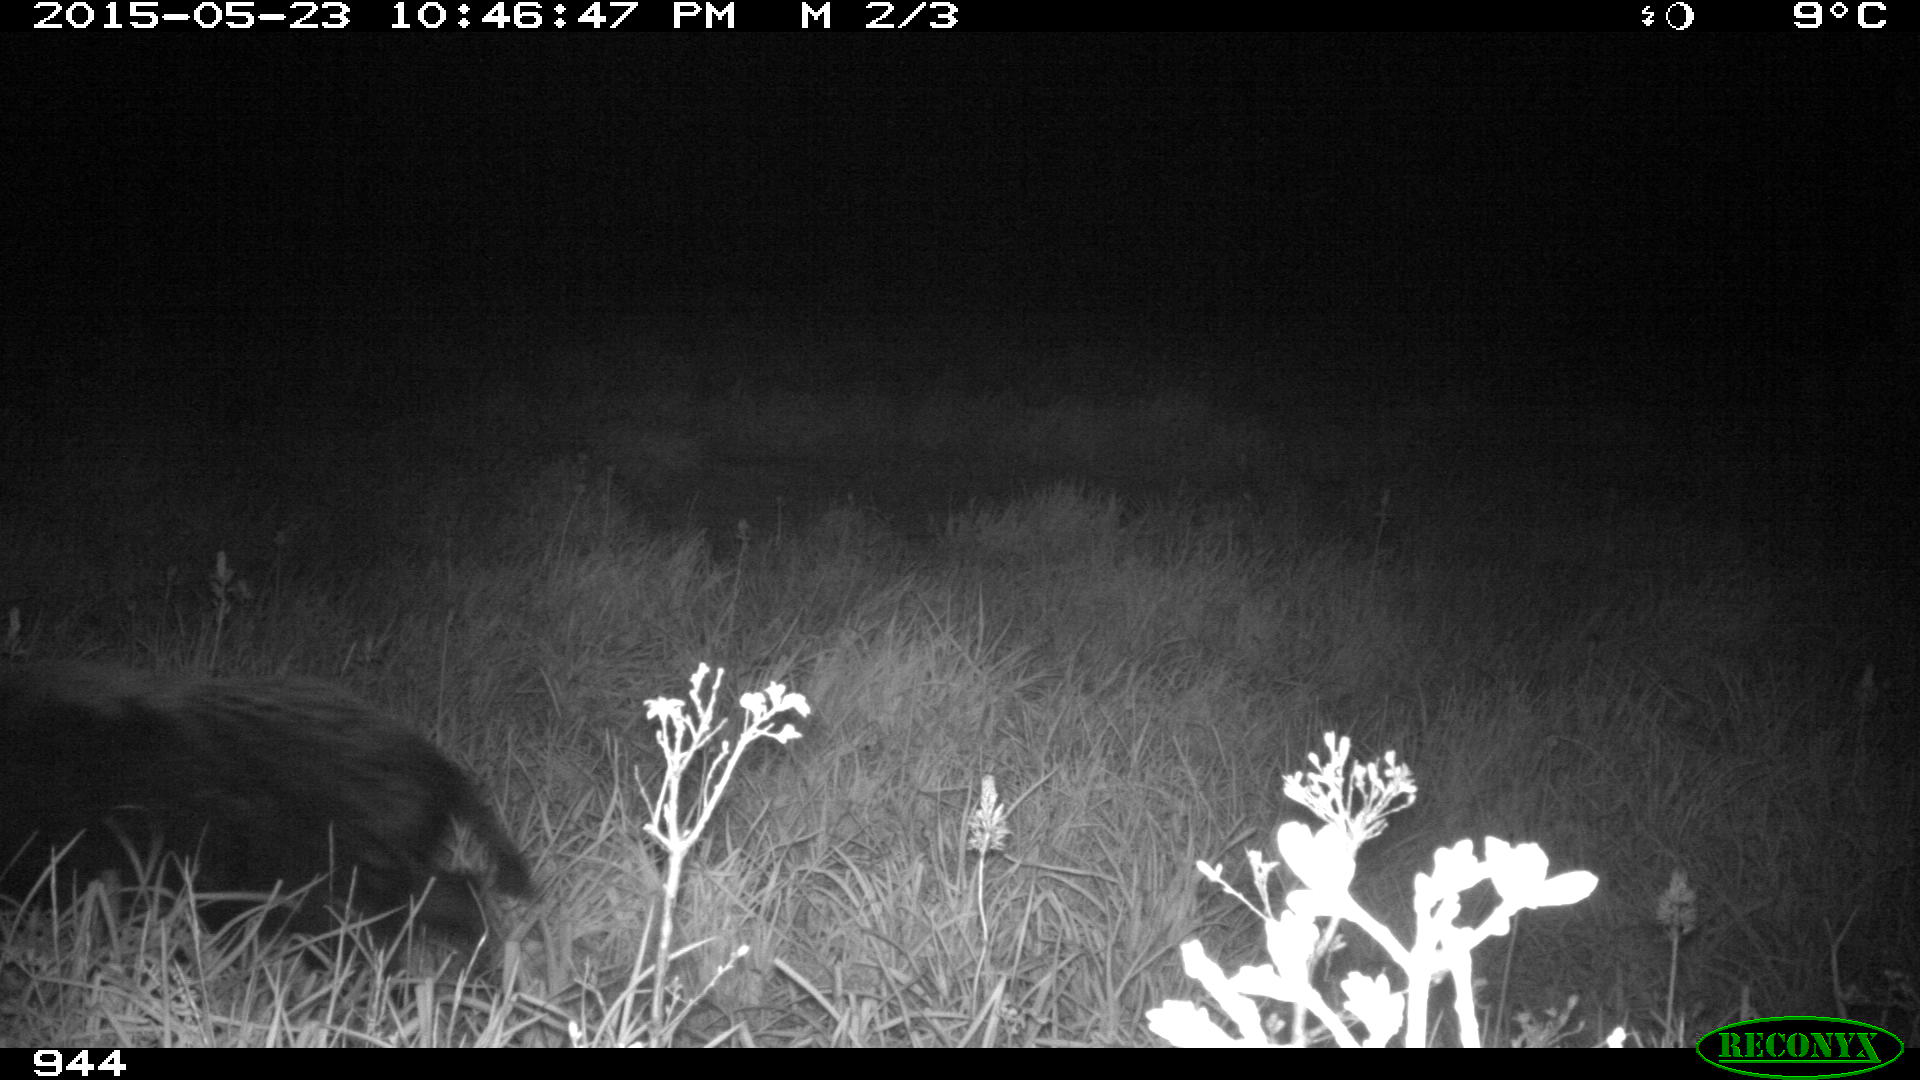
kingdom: Animalia
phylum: Chordata
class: Mammalia
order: Artiodactyla
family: Suidae
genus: Sus
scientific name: Sus scrofa
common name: Wild boar
